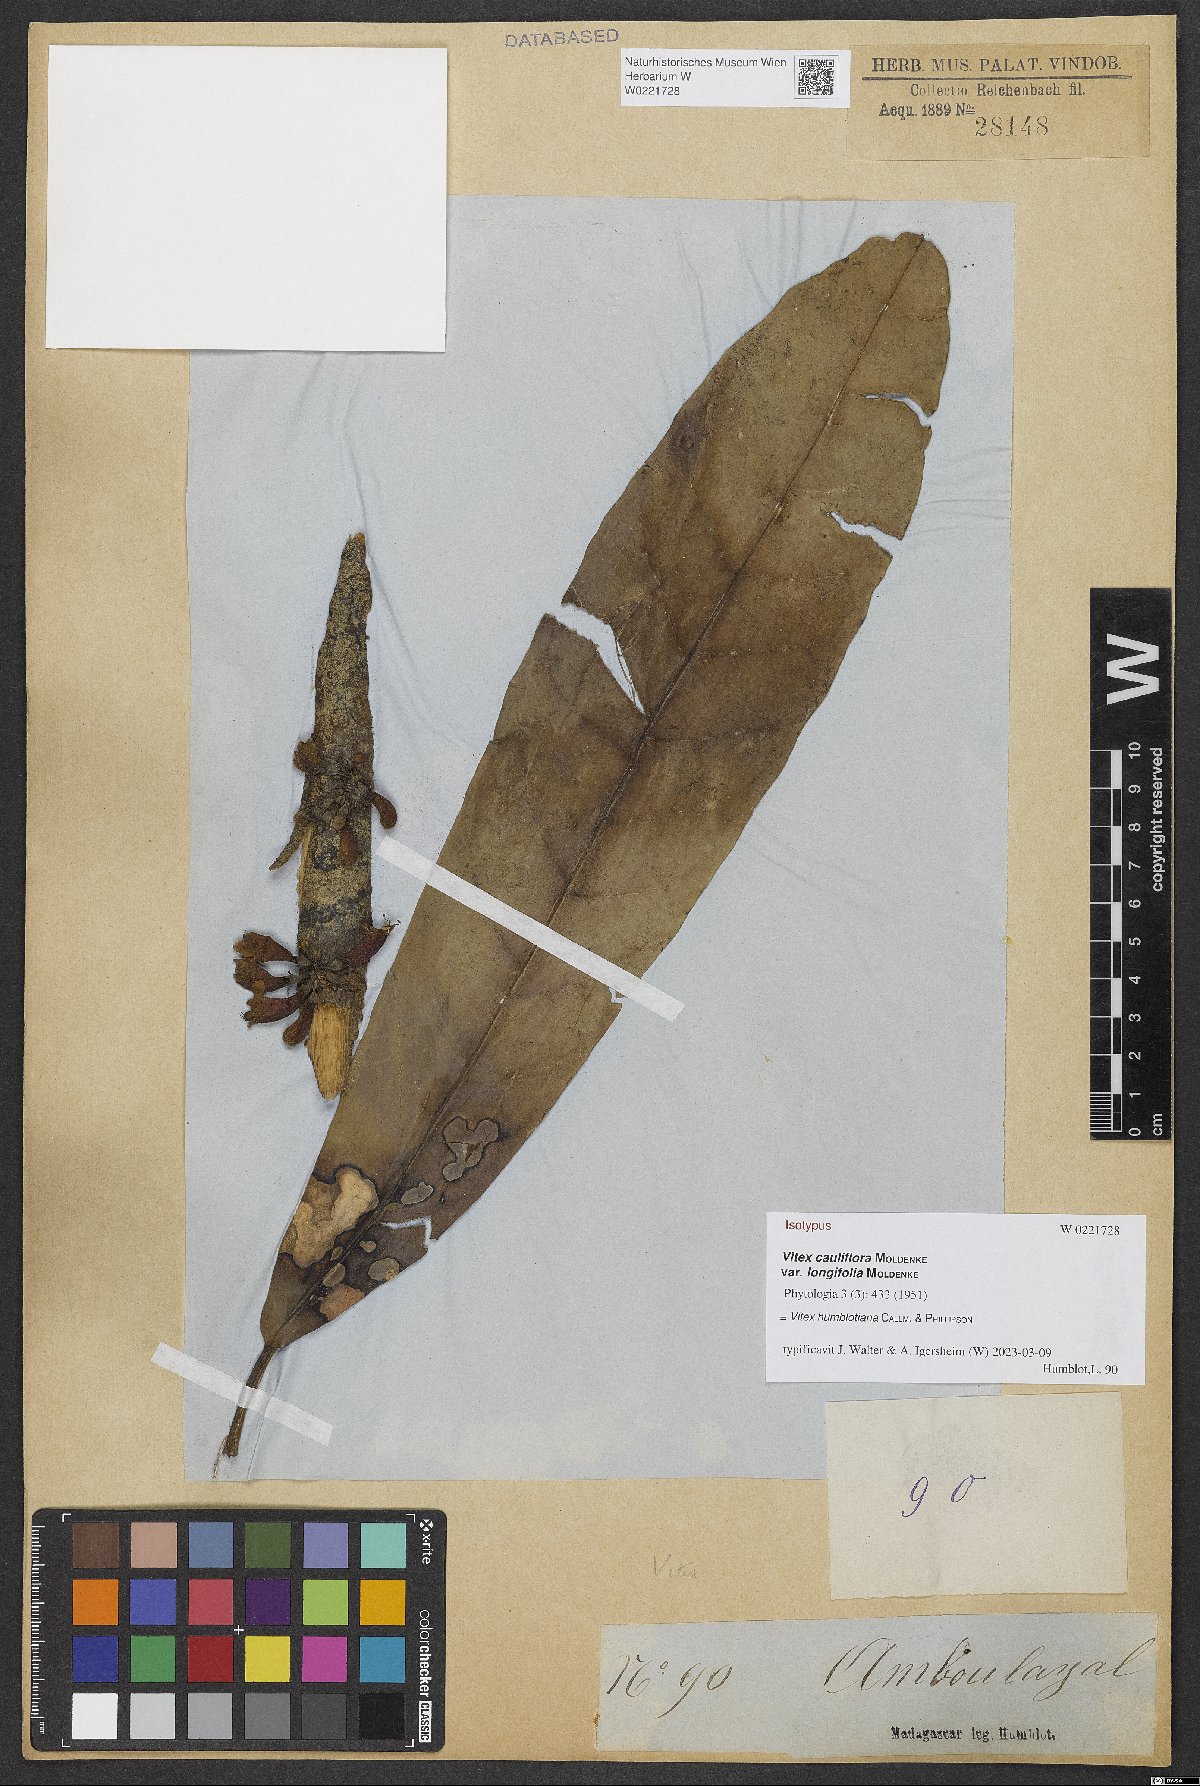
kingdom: Plantae
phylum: Tracheophyta
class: Magnoliopsida
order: Lamiales
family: Lamiaceae
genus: Vitex
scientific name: Vitex humblotiana
